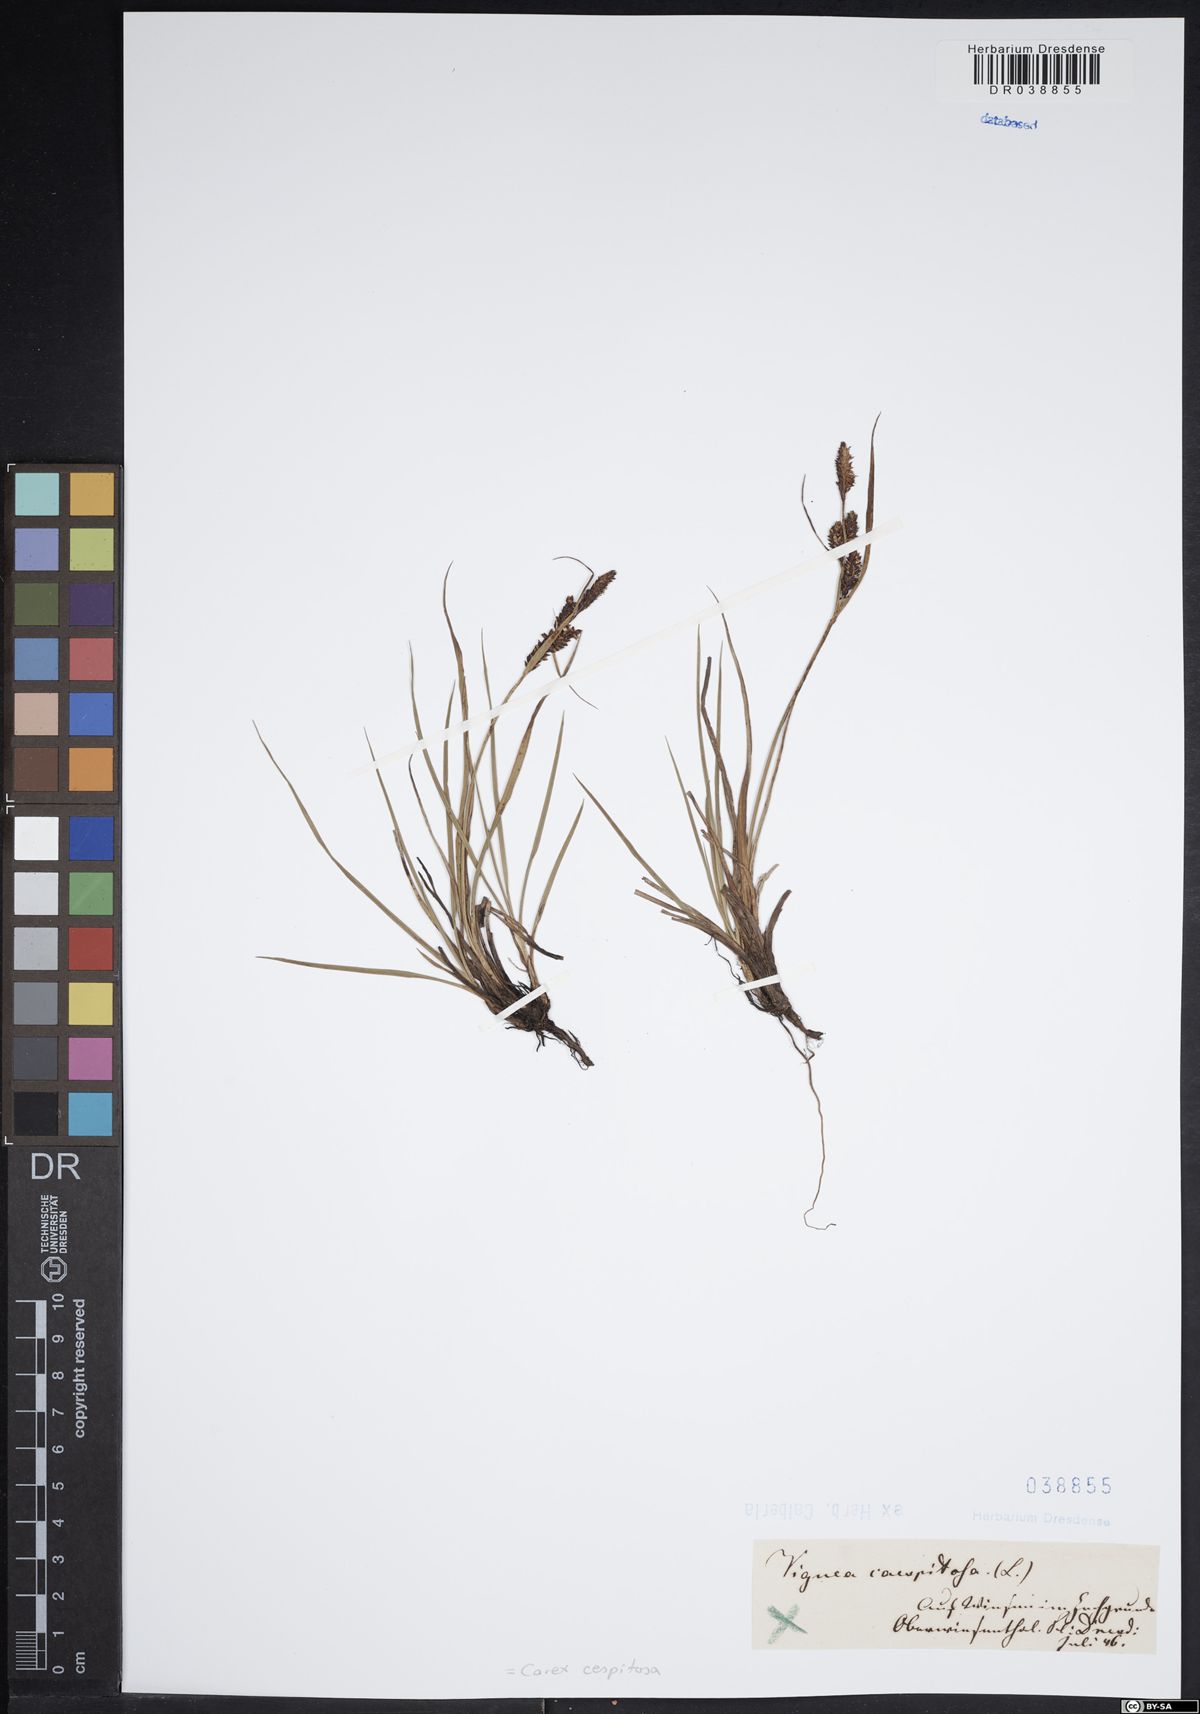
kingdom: Plantae
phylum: Tracheophyta
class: Liliopsida
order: Poales
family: Cyperaceae
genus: Carex
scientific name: Carex cespitosa
